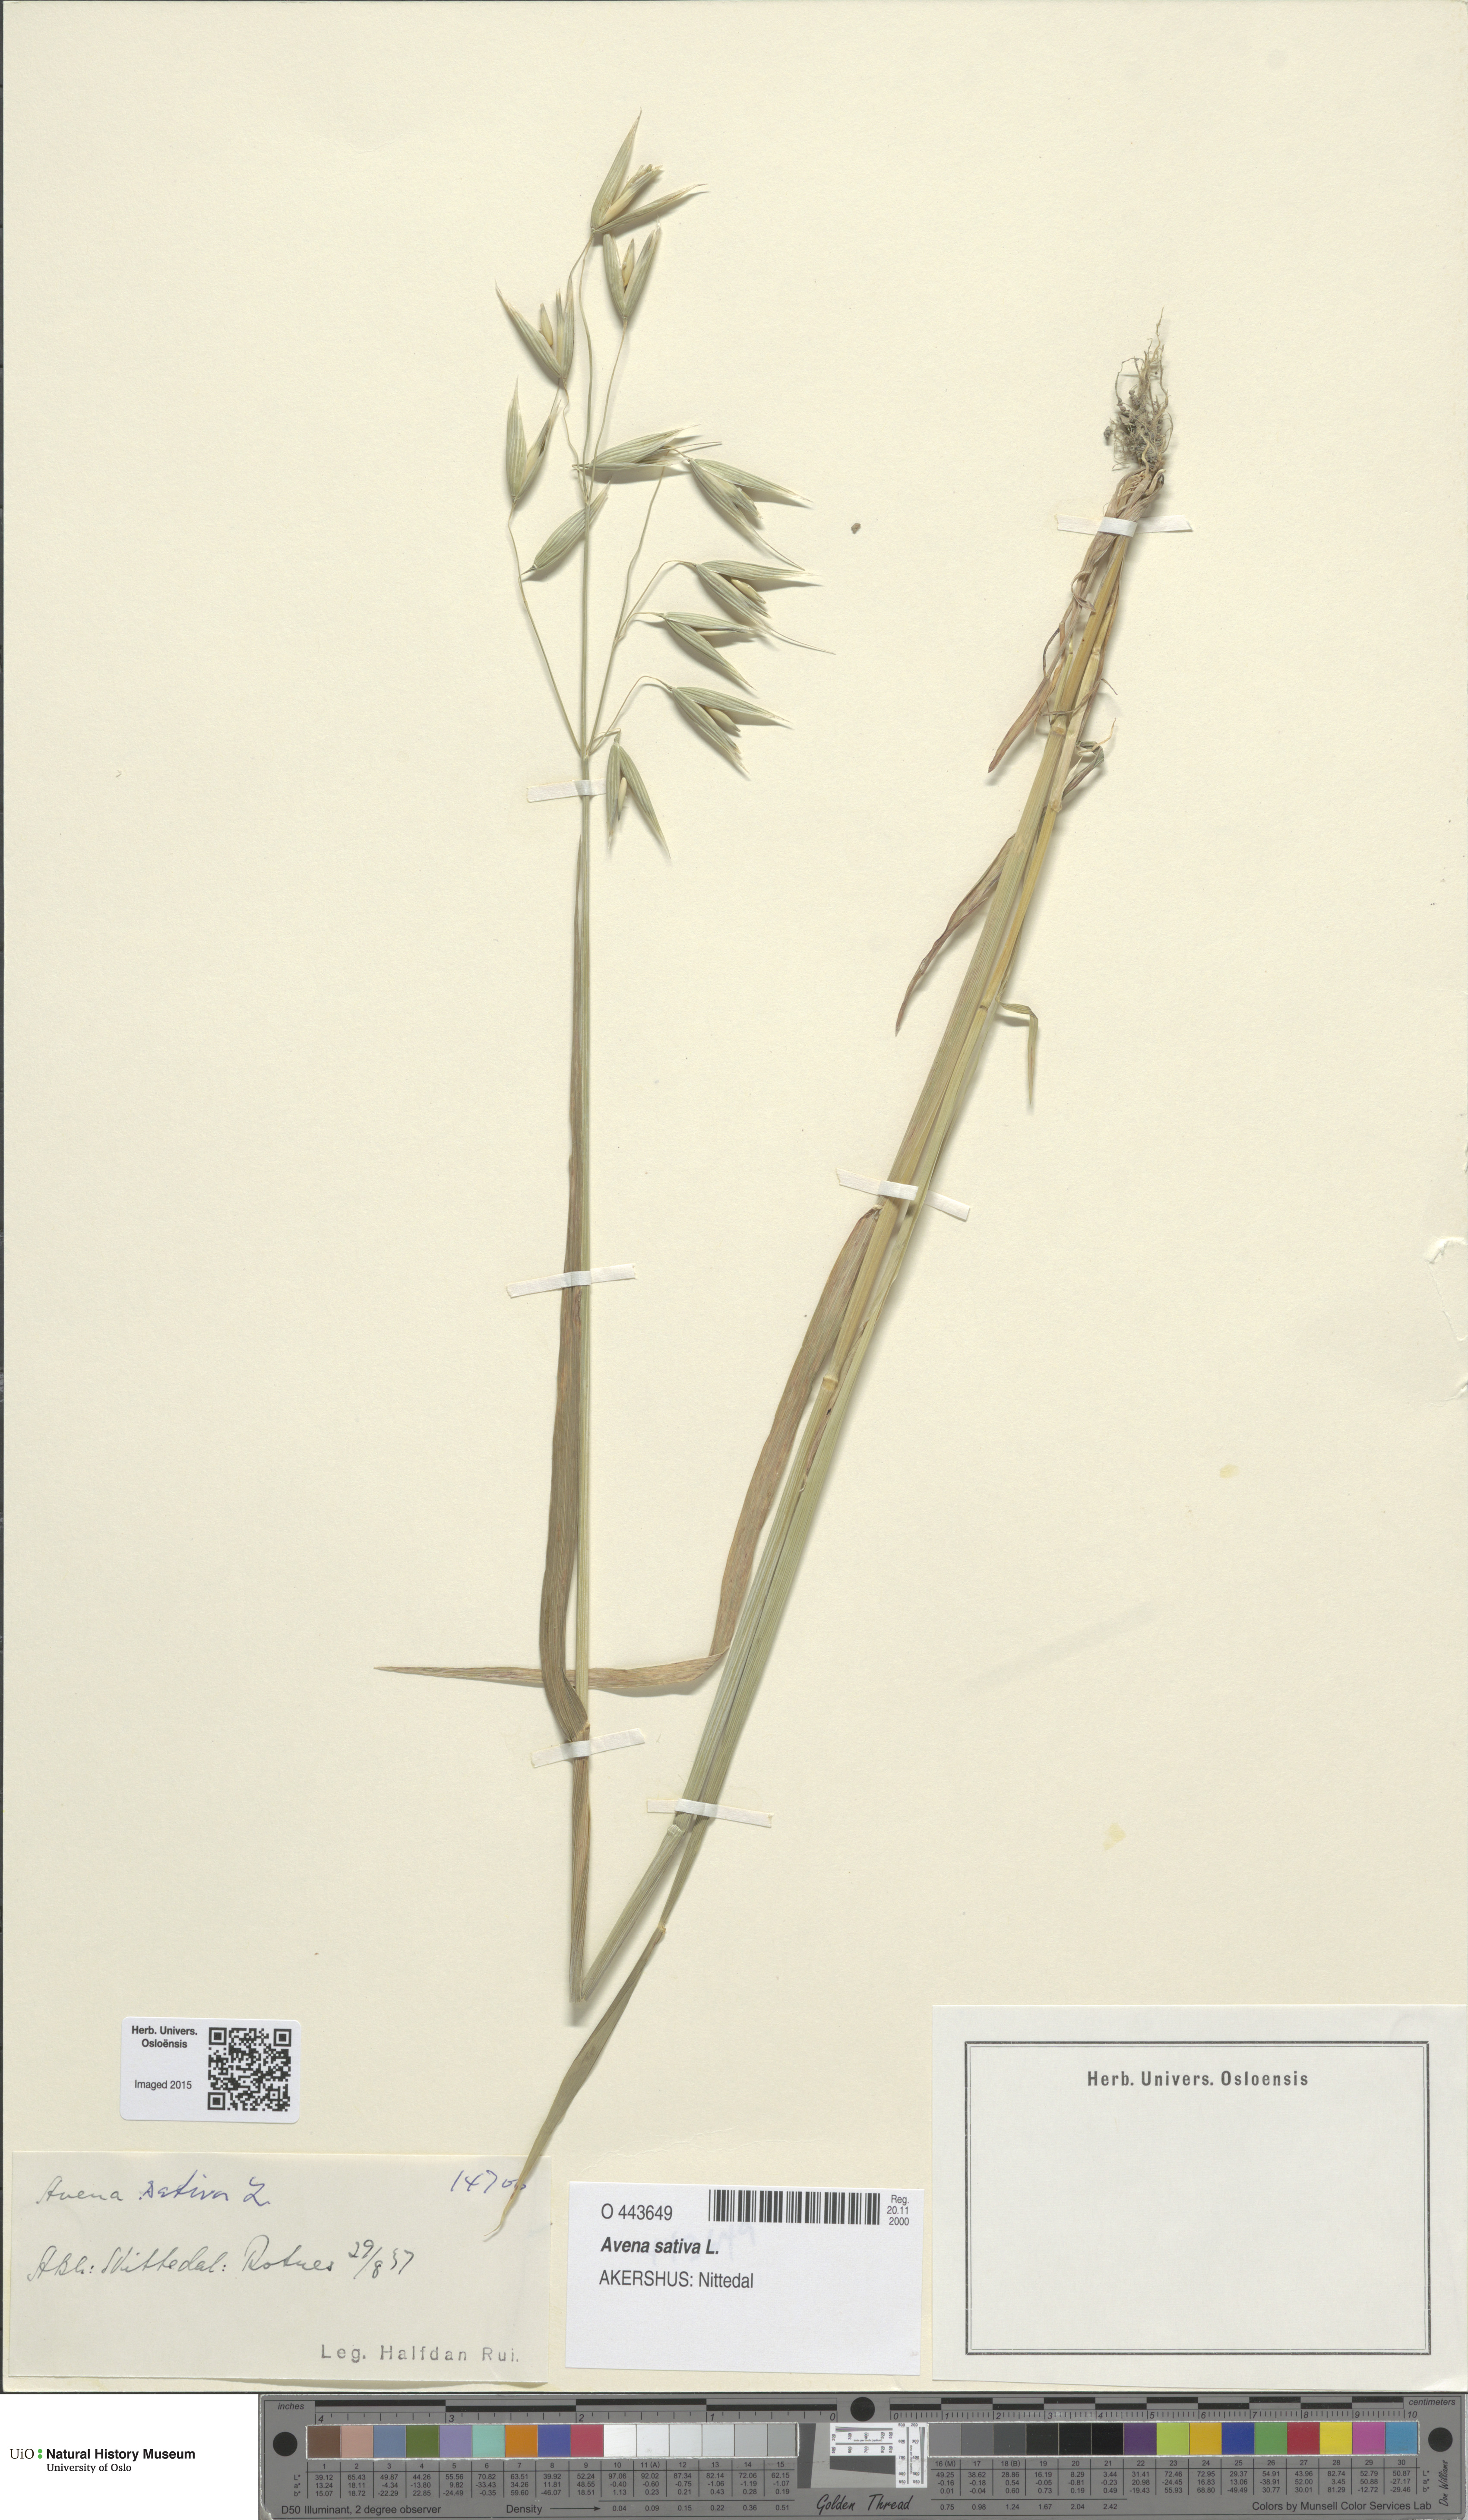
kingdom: Plantae
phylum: Tracheophyta
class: Liliopsida
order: Poales
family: Poaceae
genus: Avena
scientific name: Avena sativa
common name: Oat
